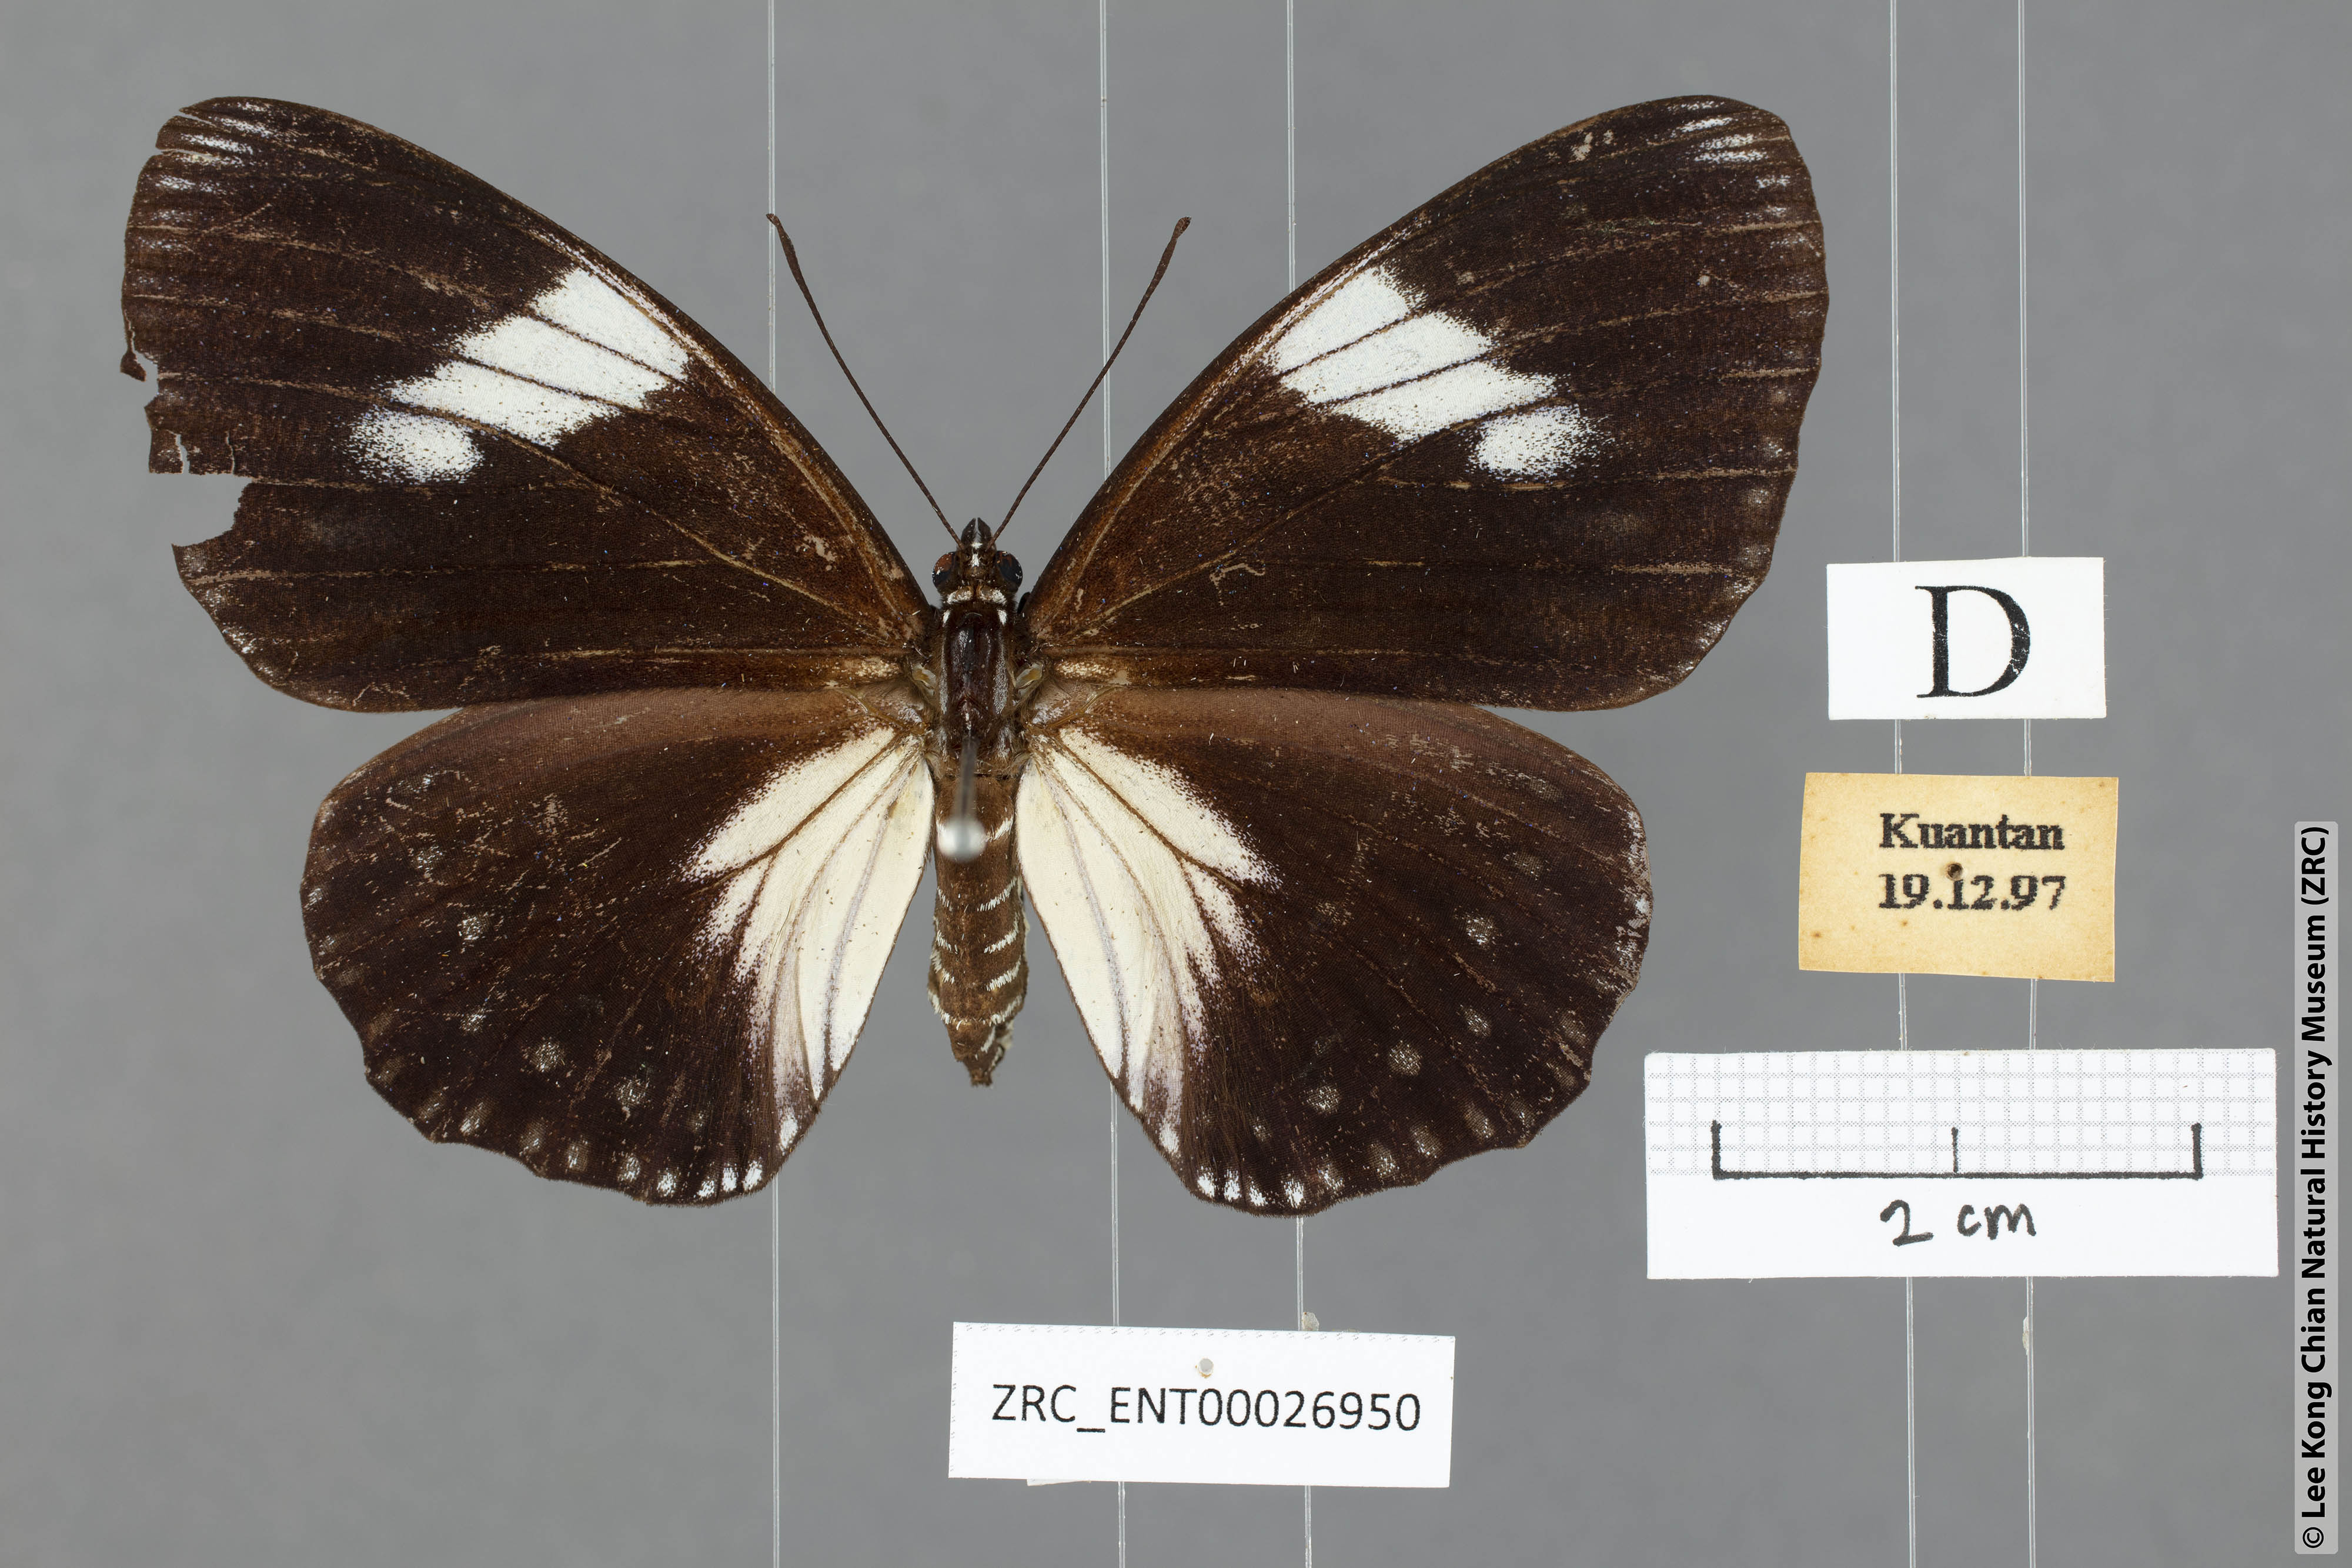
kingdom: Animalia
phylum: Arthropoda
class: Insecta
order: Lepidoptera
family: Nymphalidae
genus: Euripus
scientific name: Euripus nyctelius
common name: Courtesan
